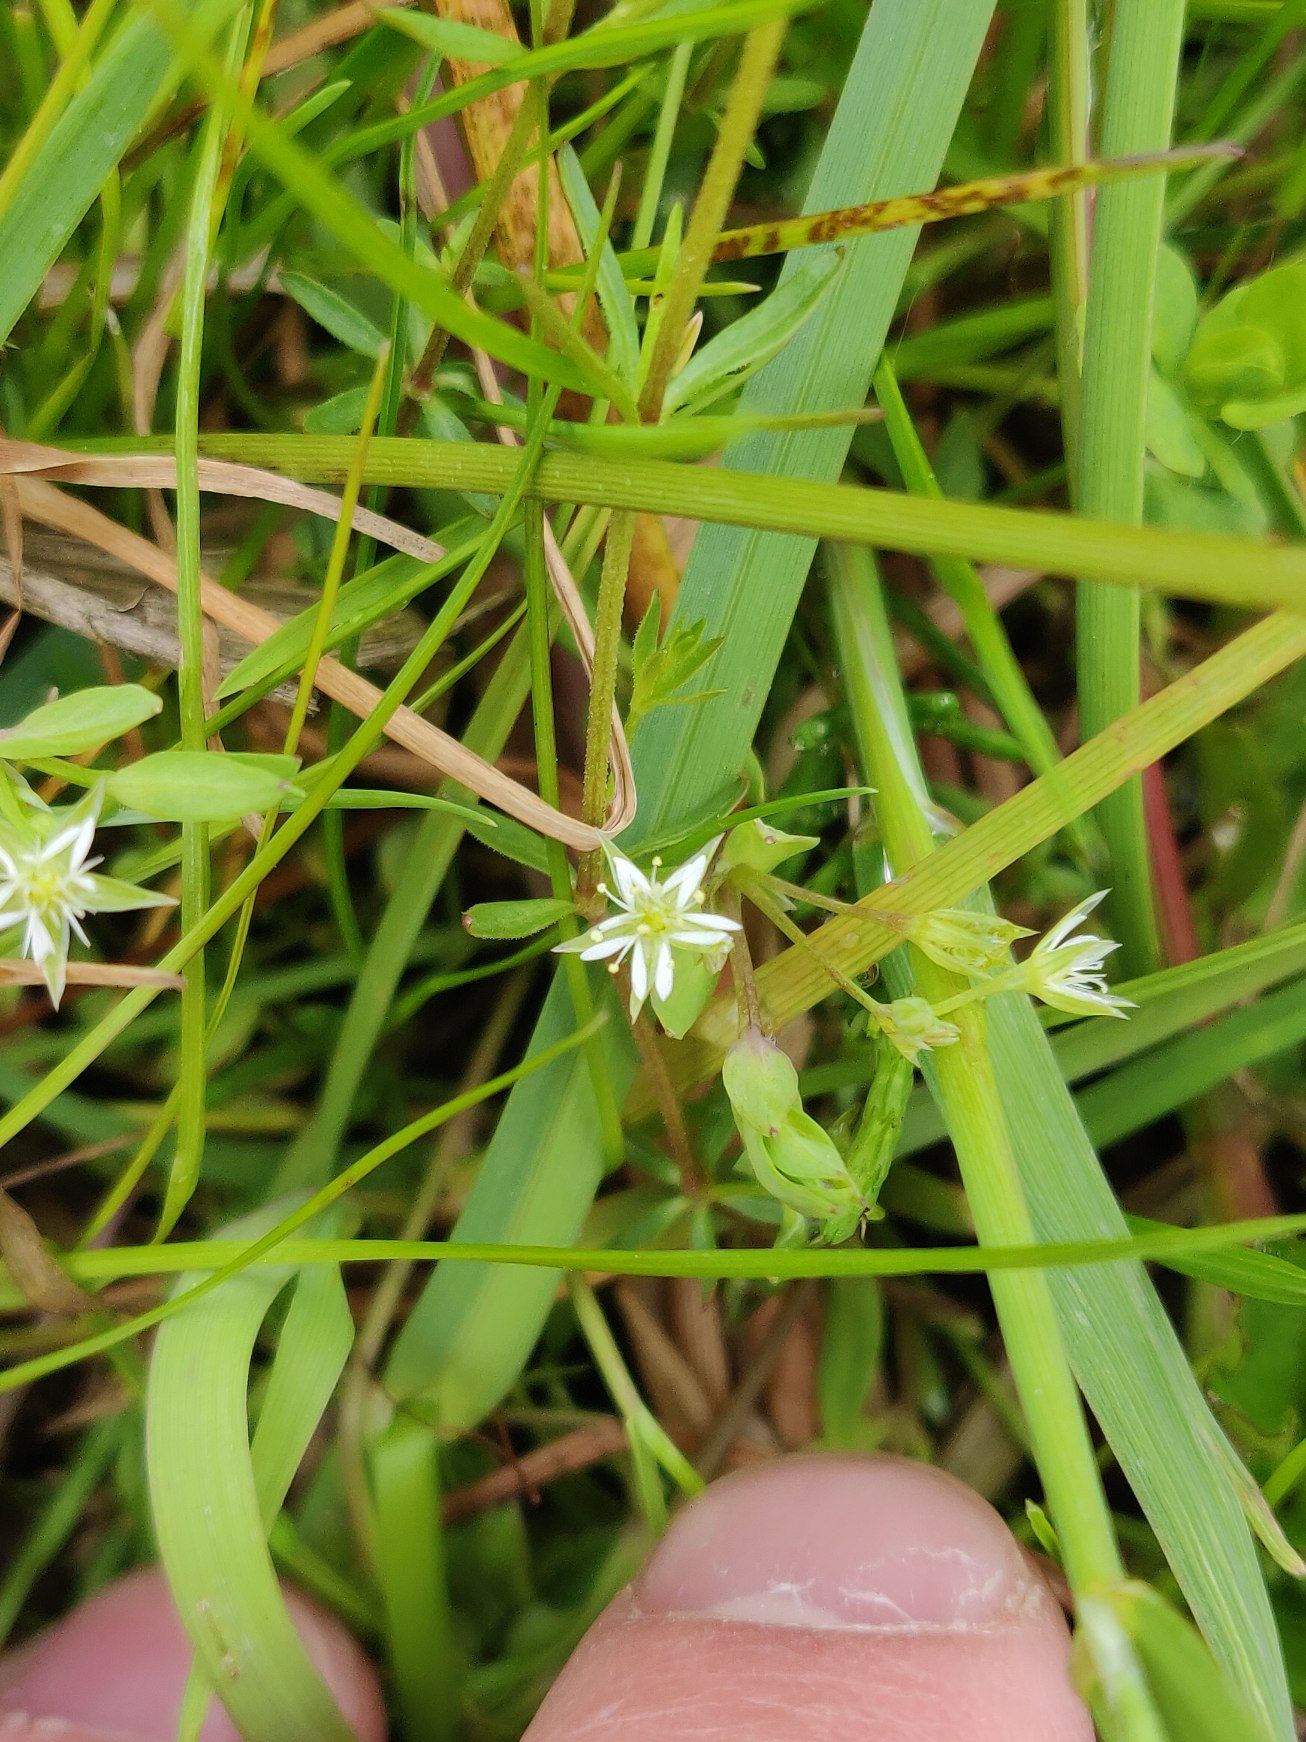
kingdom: Plantae
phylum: Tracheophyta
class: Magnoliopsida
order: Caryophyllales
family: Caryophyllaceae
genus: Stellaria
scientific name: Stellaria alsine
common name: Sump-fladstjerne
